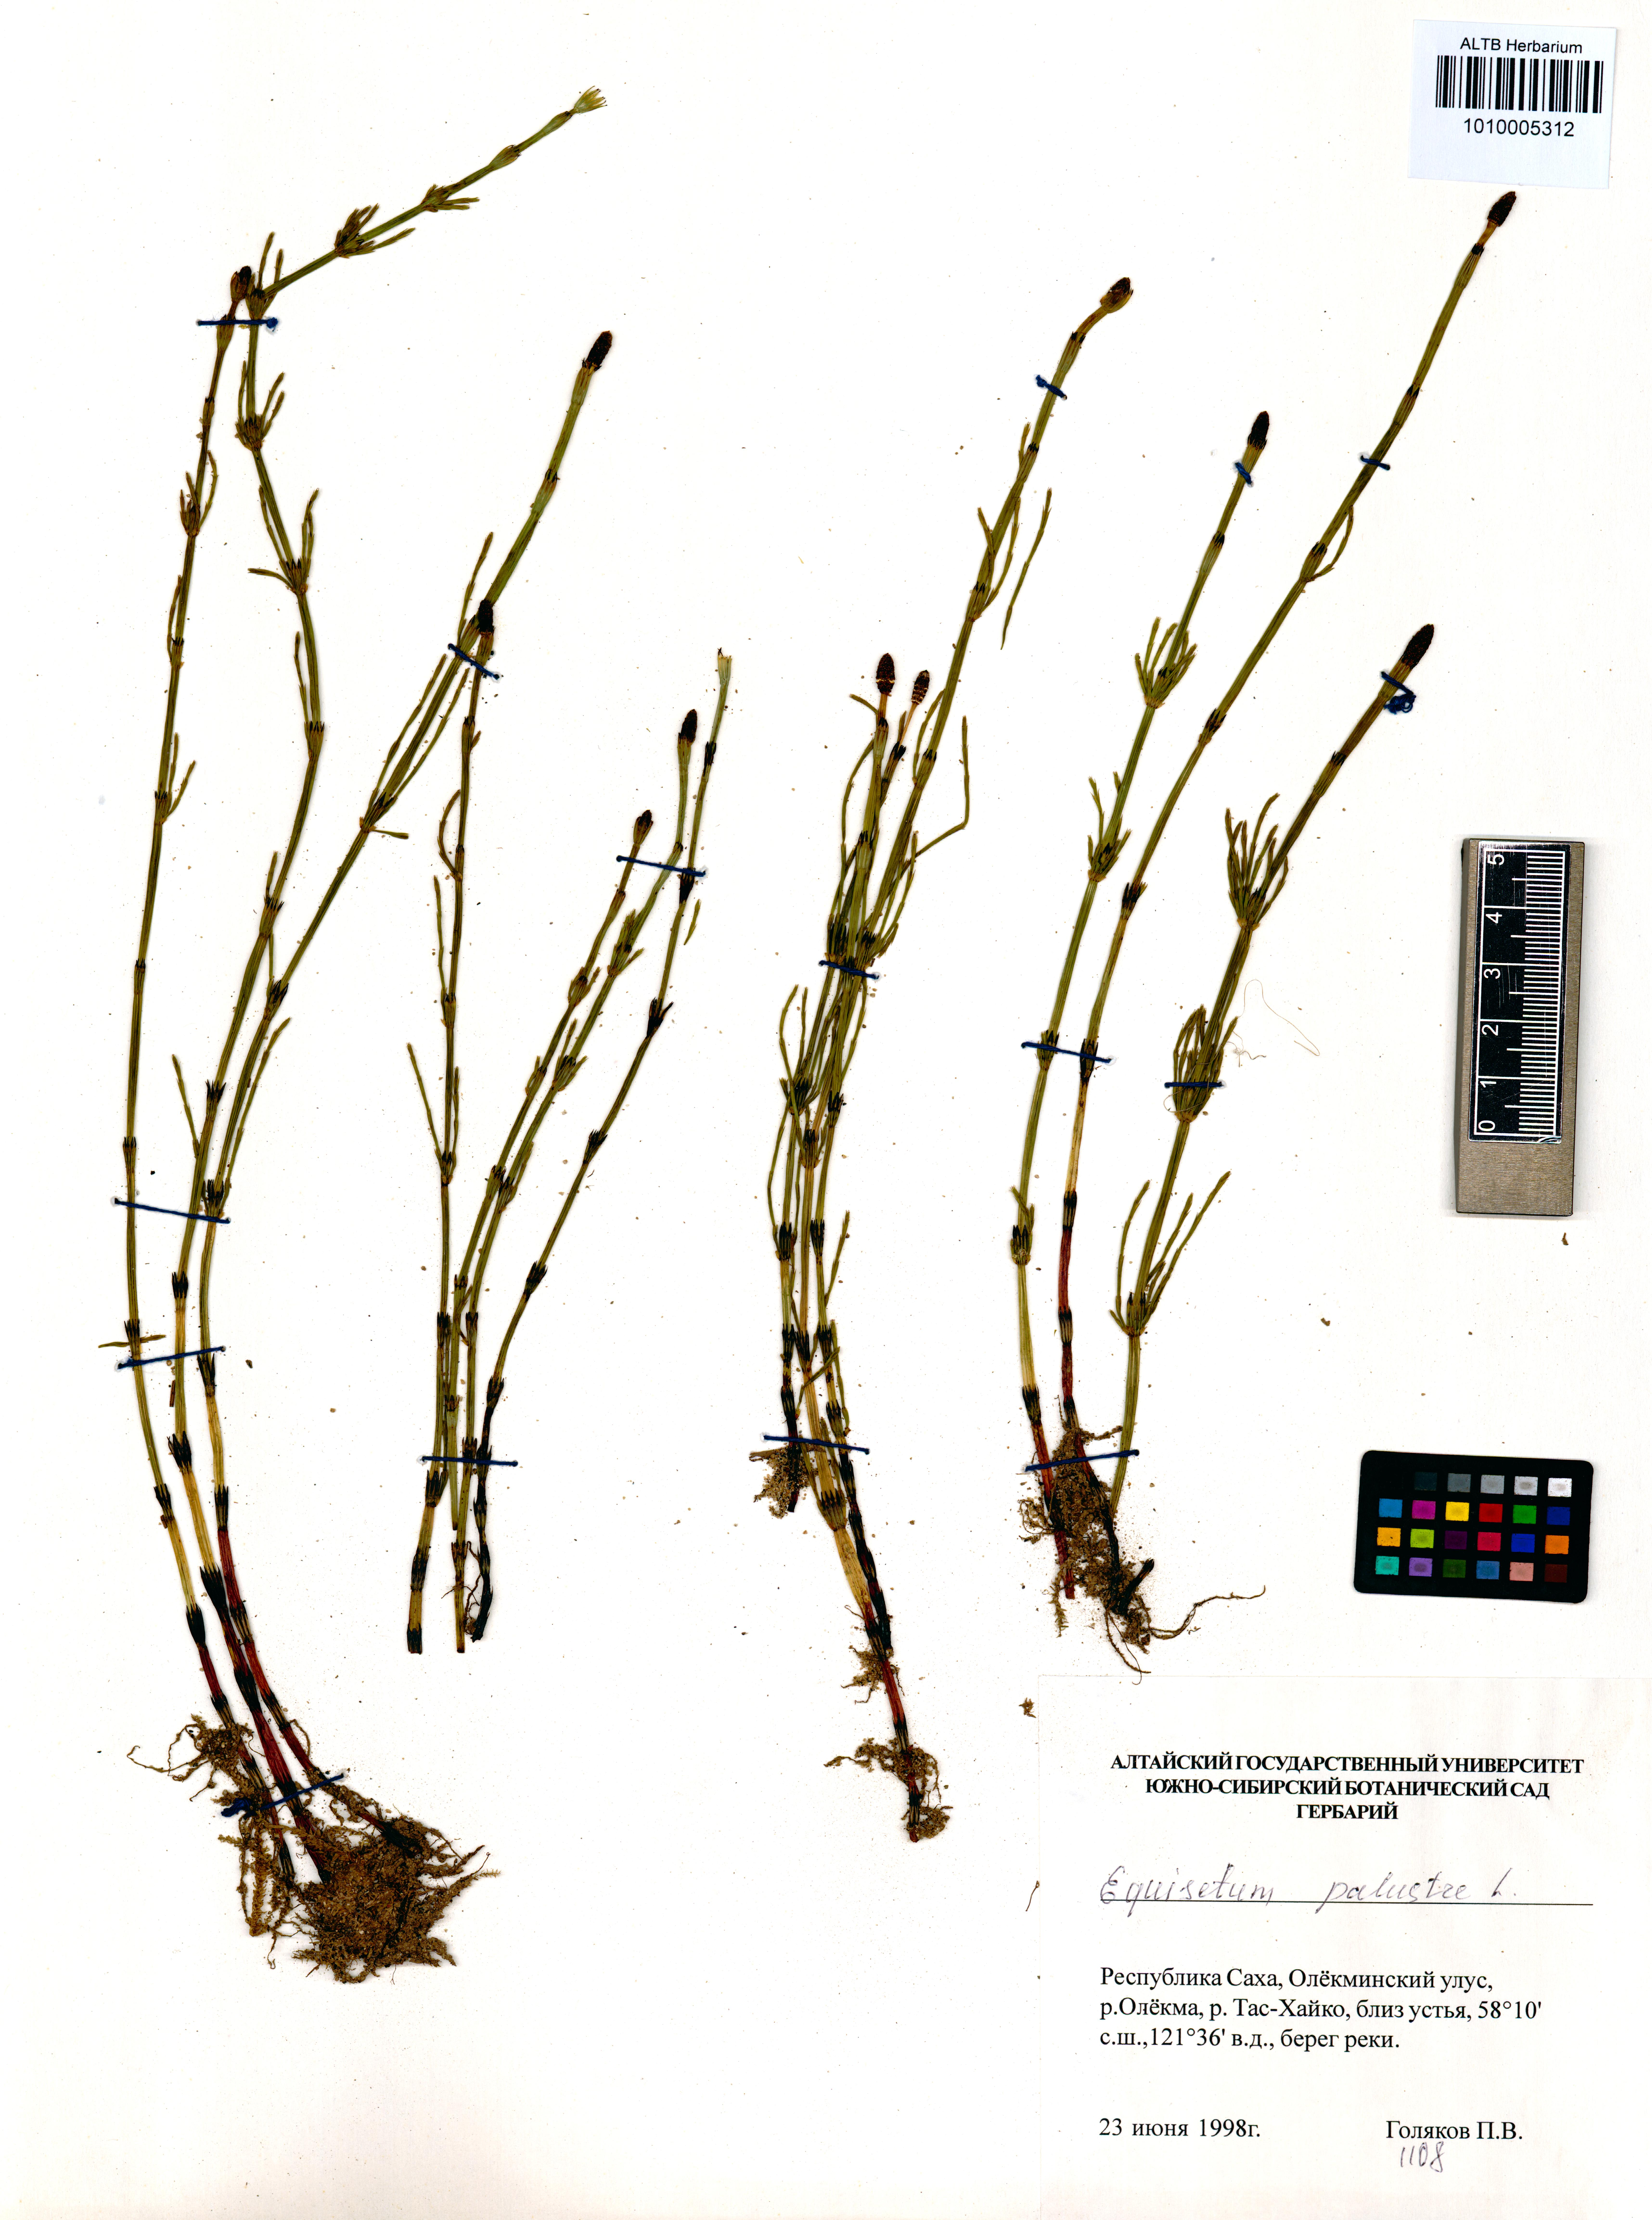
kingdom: Plantae
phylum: Tracheophyta
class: Polypodiopsida
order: Equisetales
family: Equisetaceae
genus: Equisetum
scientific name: Equisetum palustre
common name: Marsh horsetail
